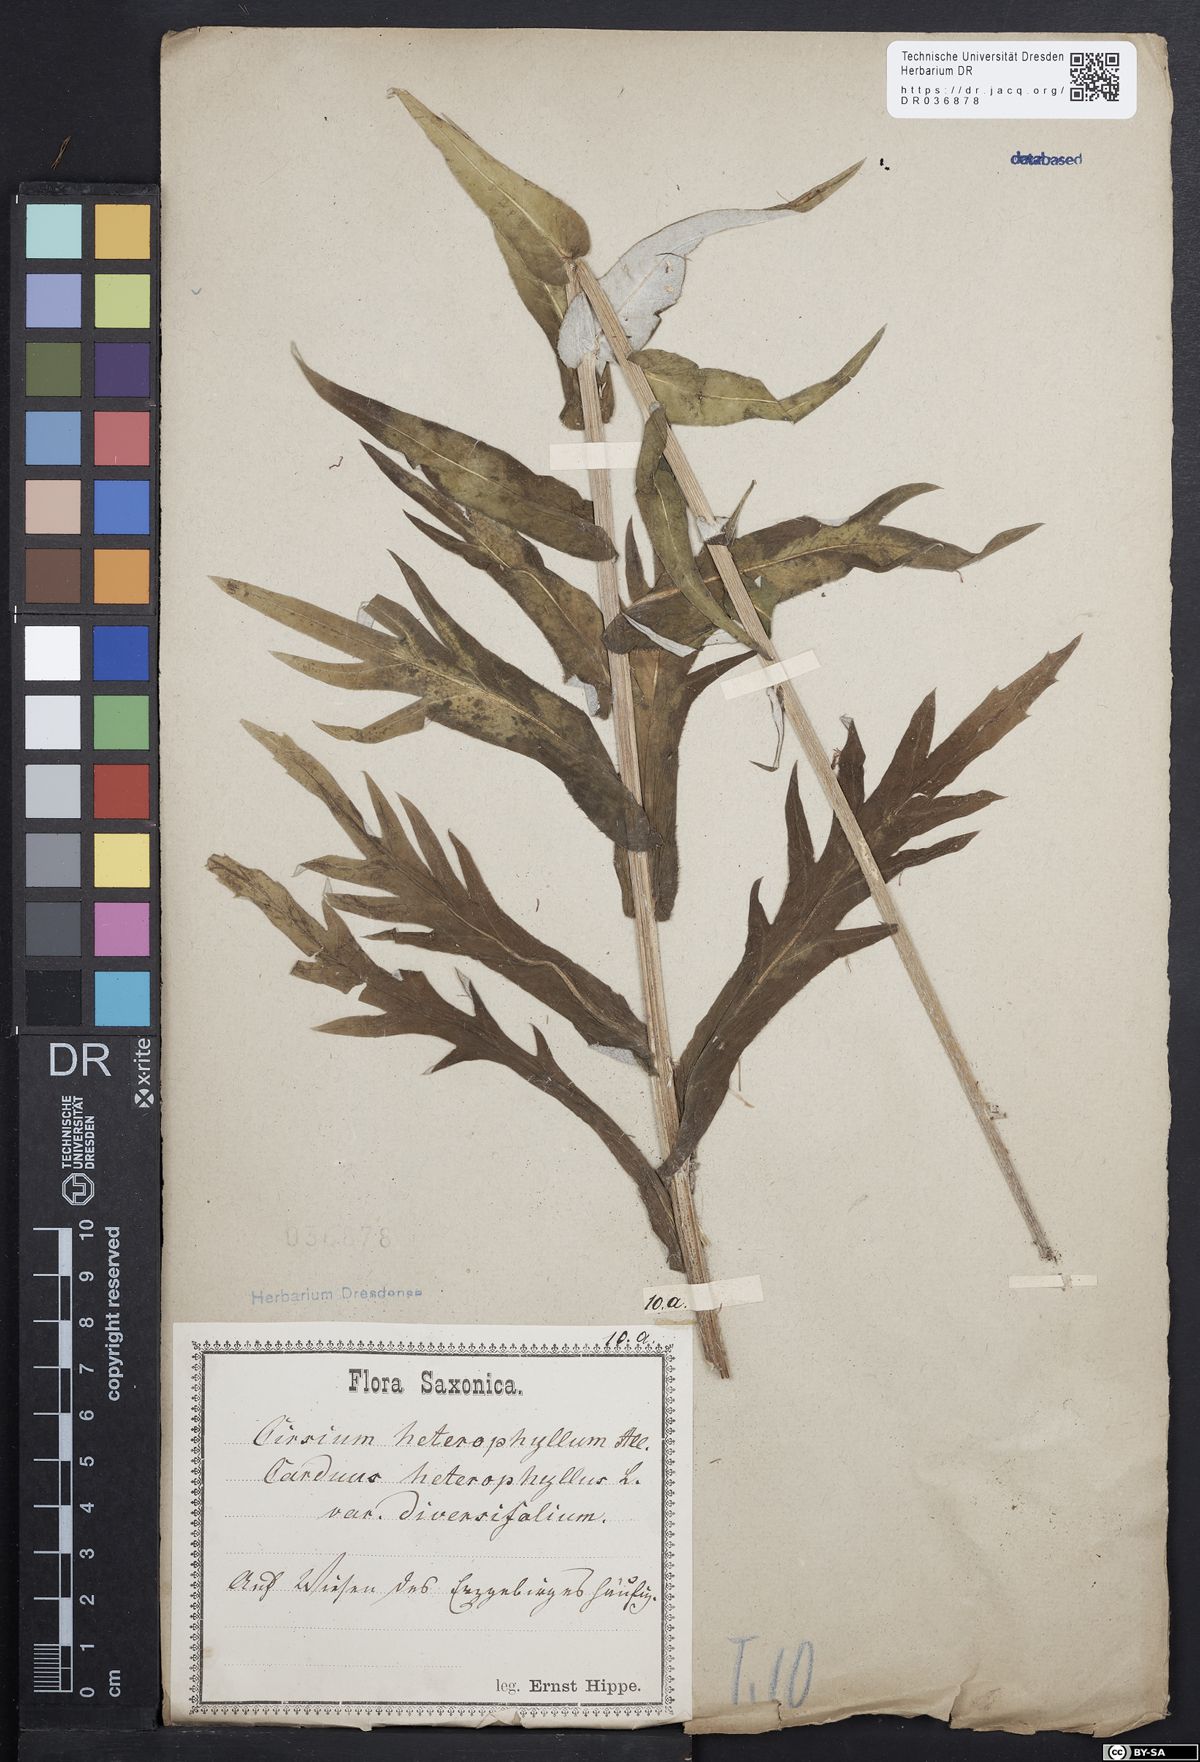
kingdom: Plantae
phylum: Tracheophyta
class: Magnoliopsida
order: Asterales
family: Asteraceae
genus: Cirsium
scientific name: Cirsium helenioides
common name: Melancholy thistle
